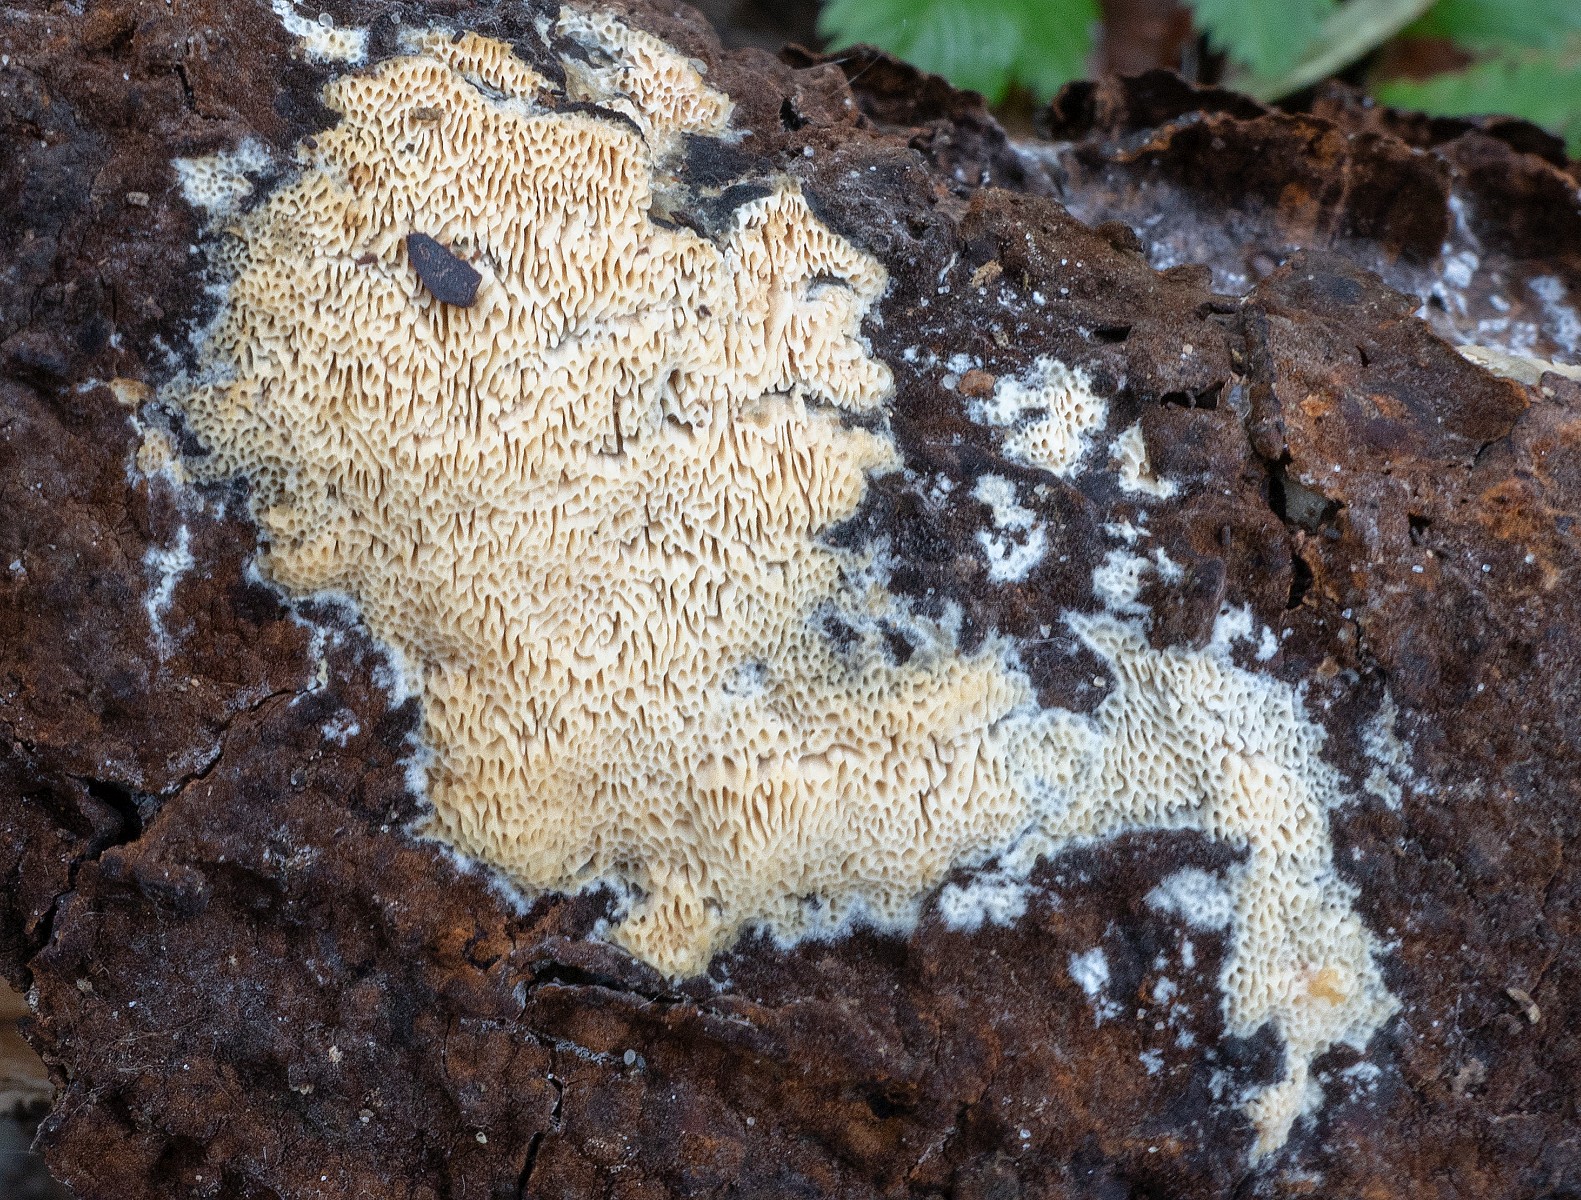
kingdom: Fungi
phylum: Basidiomycota
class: Agaricomycetes
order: Polyporales
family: Steccherinaceae
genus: Antella
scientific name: Antella niemelaei
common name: grovporet elastikporesvamp
